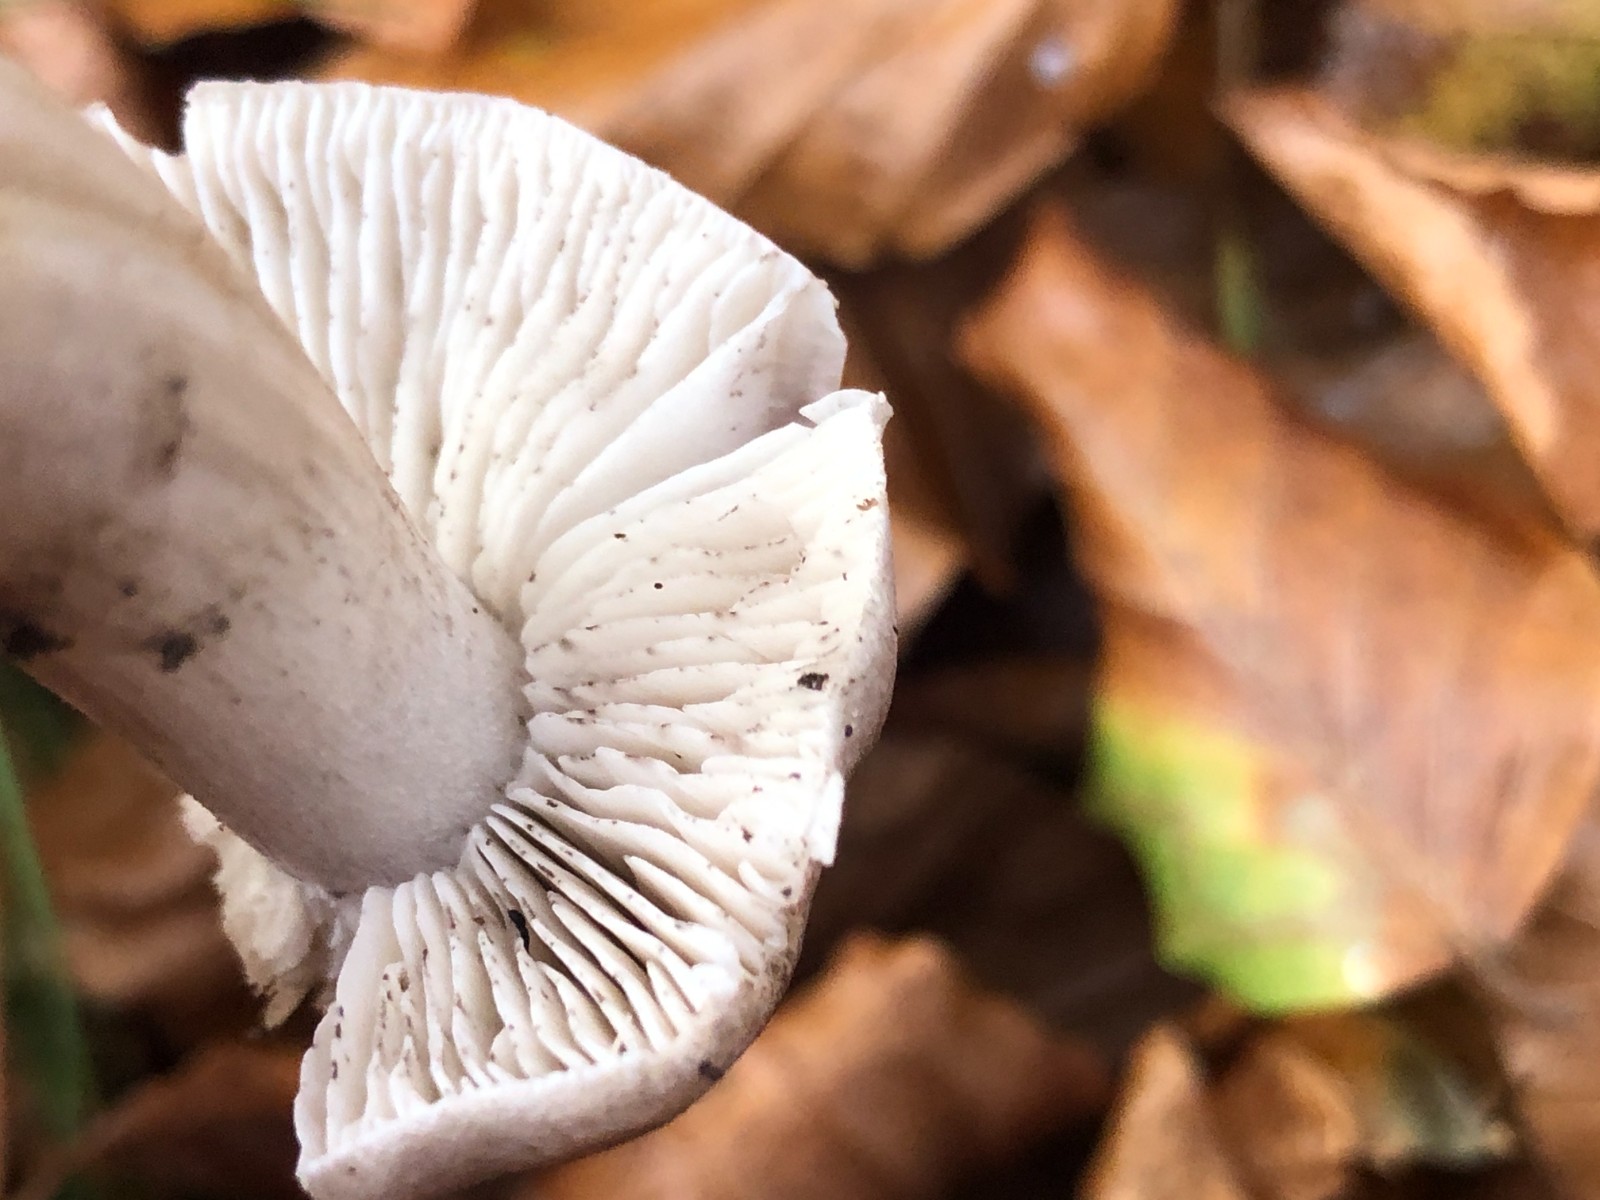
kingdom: Fungi
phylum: Basidiomycota
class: Agaricomycetes
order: Agaricales
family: Tricholomataceae
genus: Tricholoma
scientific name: Tricholoma sciodes
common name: stribet ridderhat
